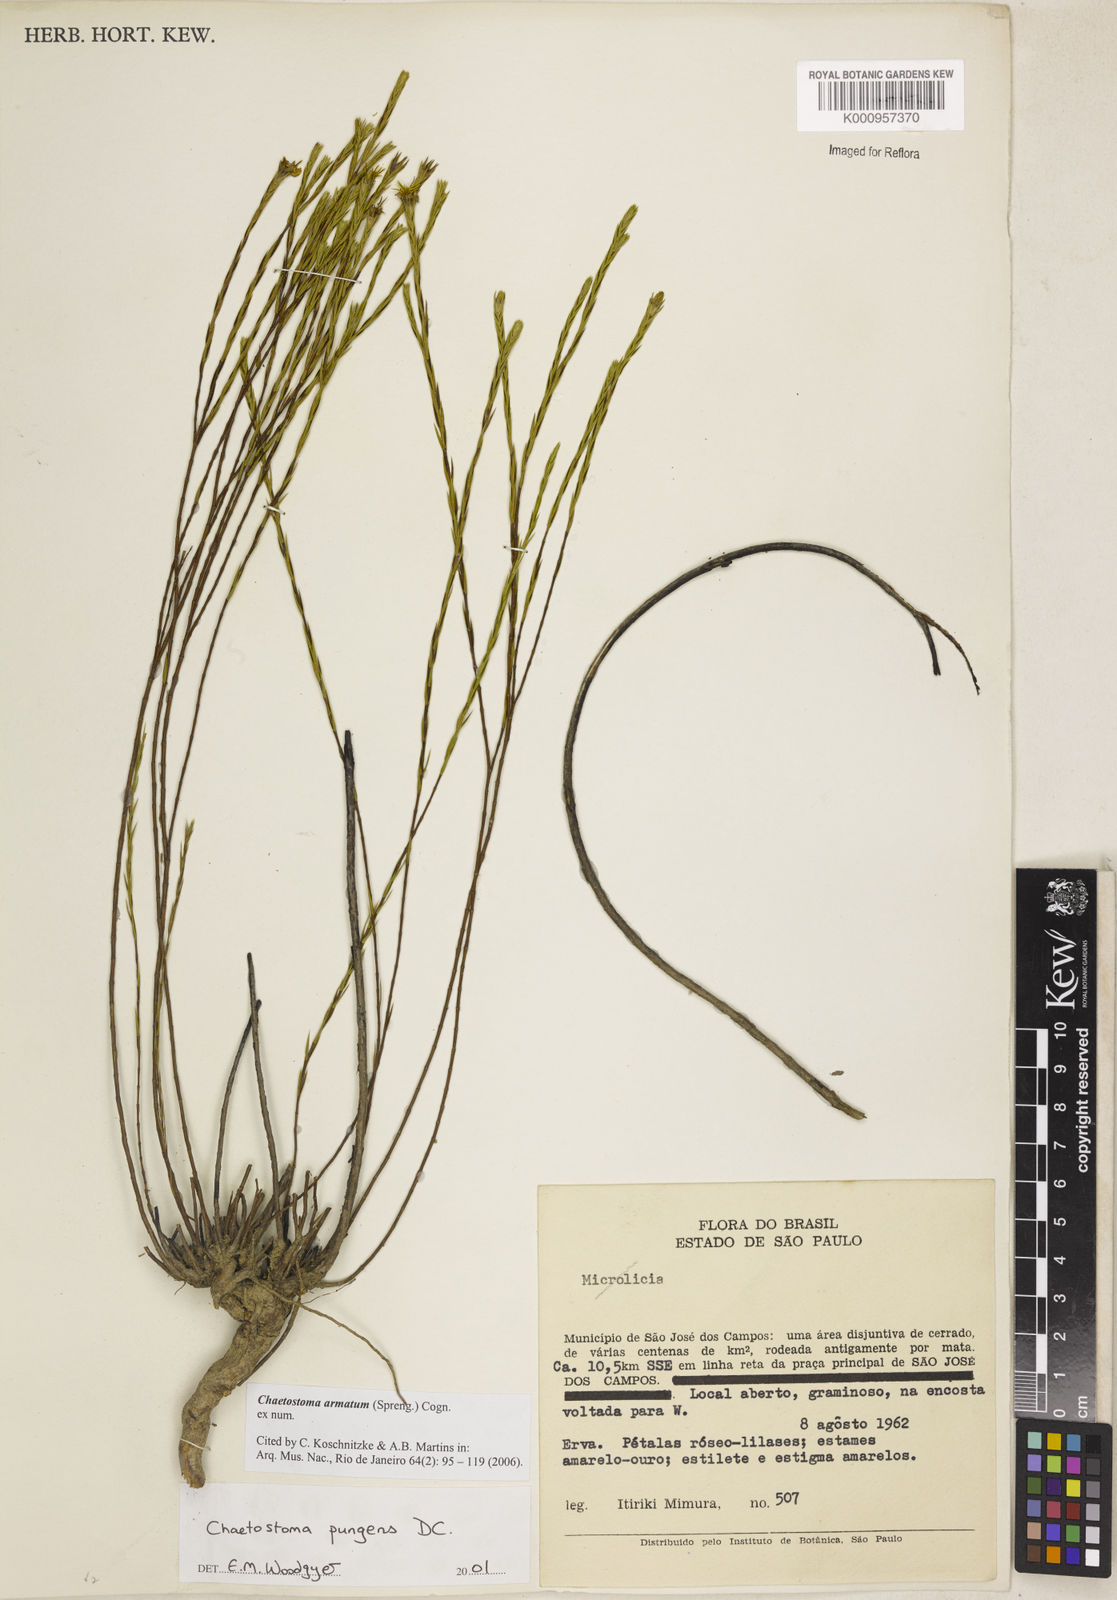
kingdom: Plantae
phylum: Tracheophyta
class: Magnoliopsida
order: Myrtales
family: Melastomataceae
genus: Microlicia
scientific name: Microlicia armata
